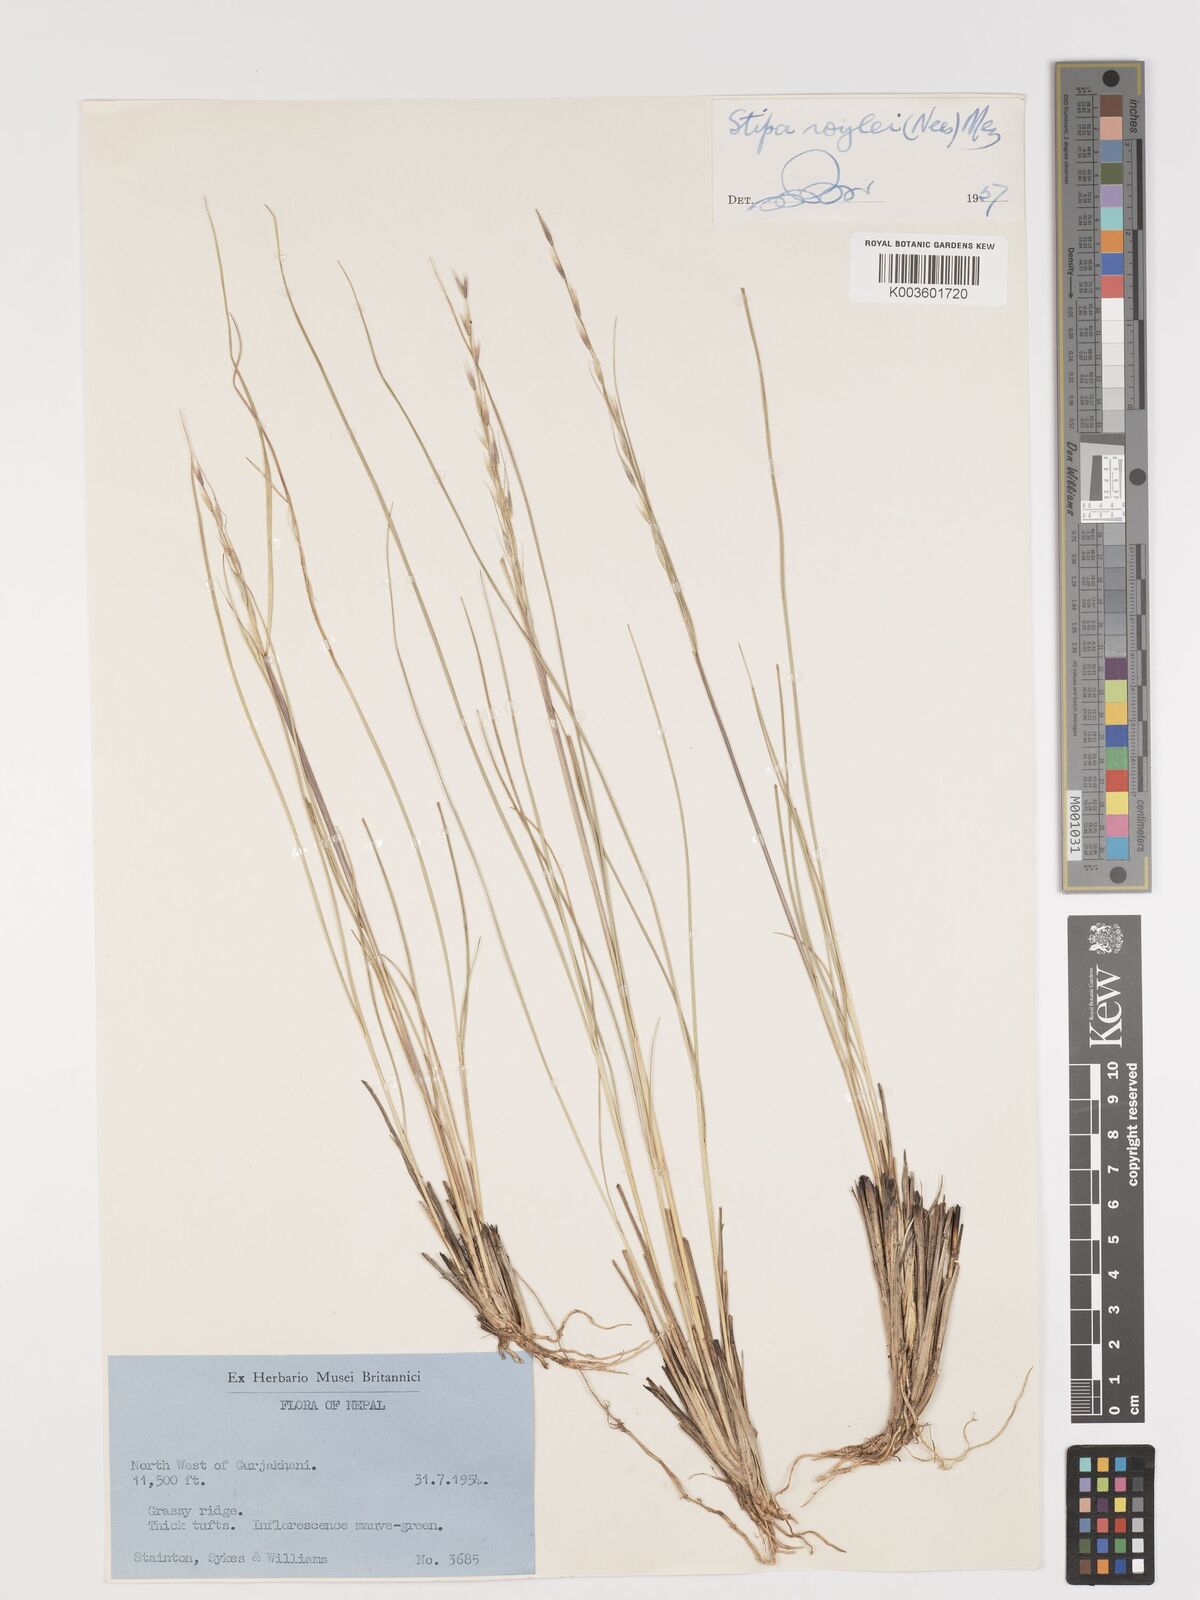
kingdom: Plantae
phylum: Tracheophyta
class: Liliopsida
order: Poales
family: Poaceae
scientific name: Poaceae
